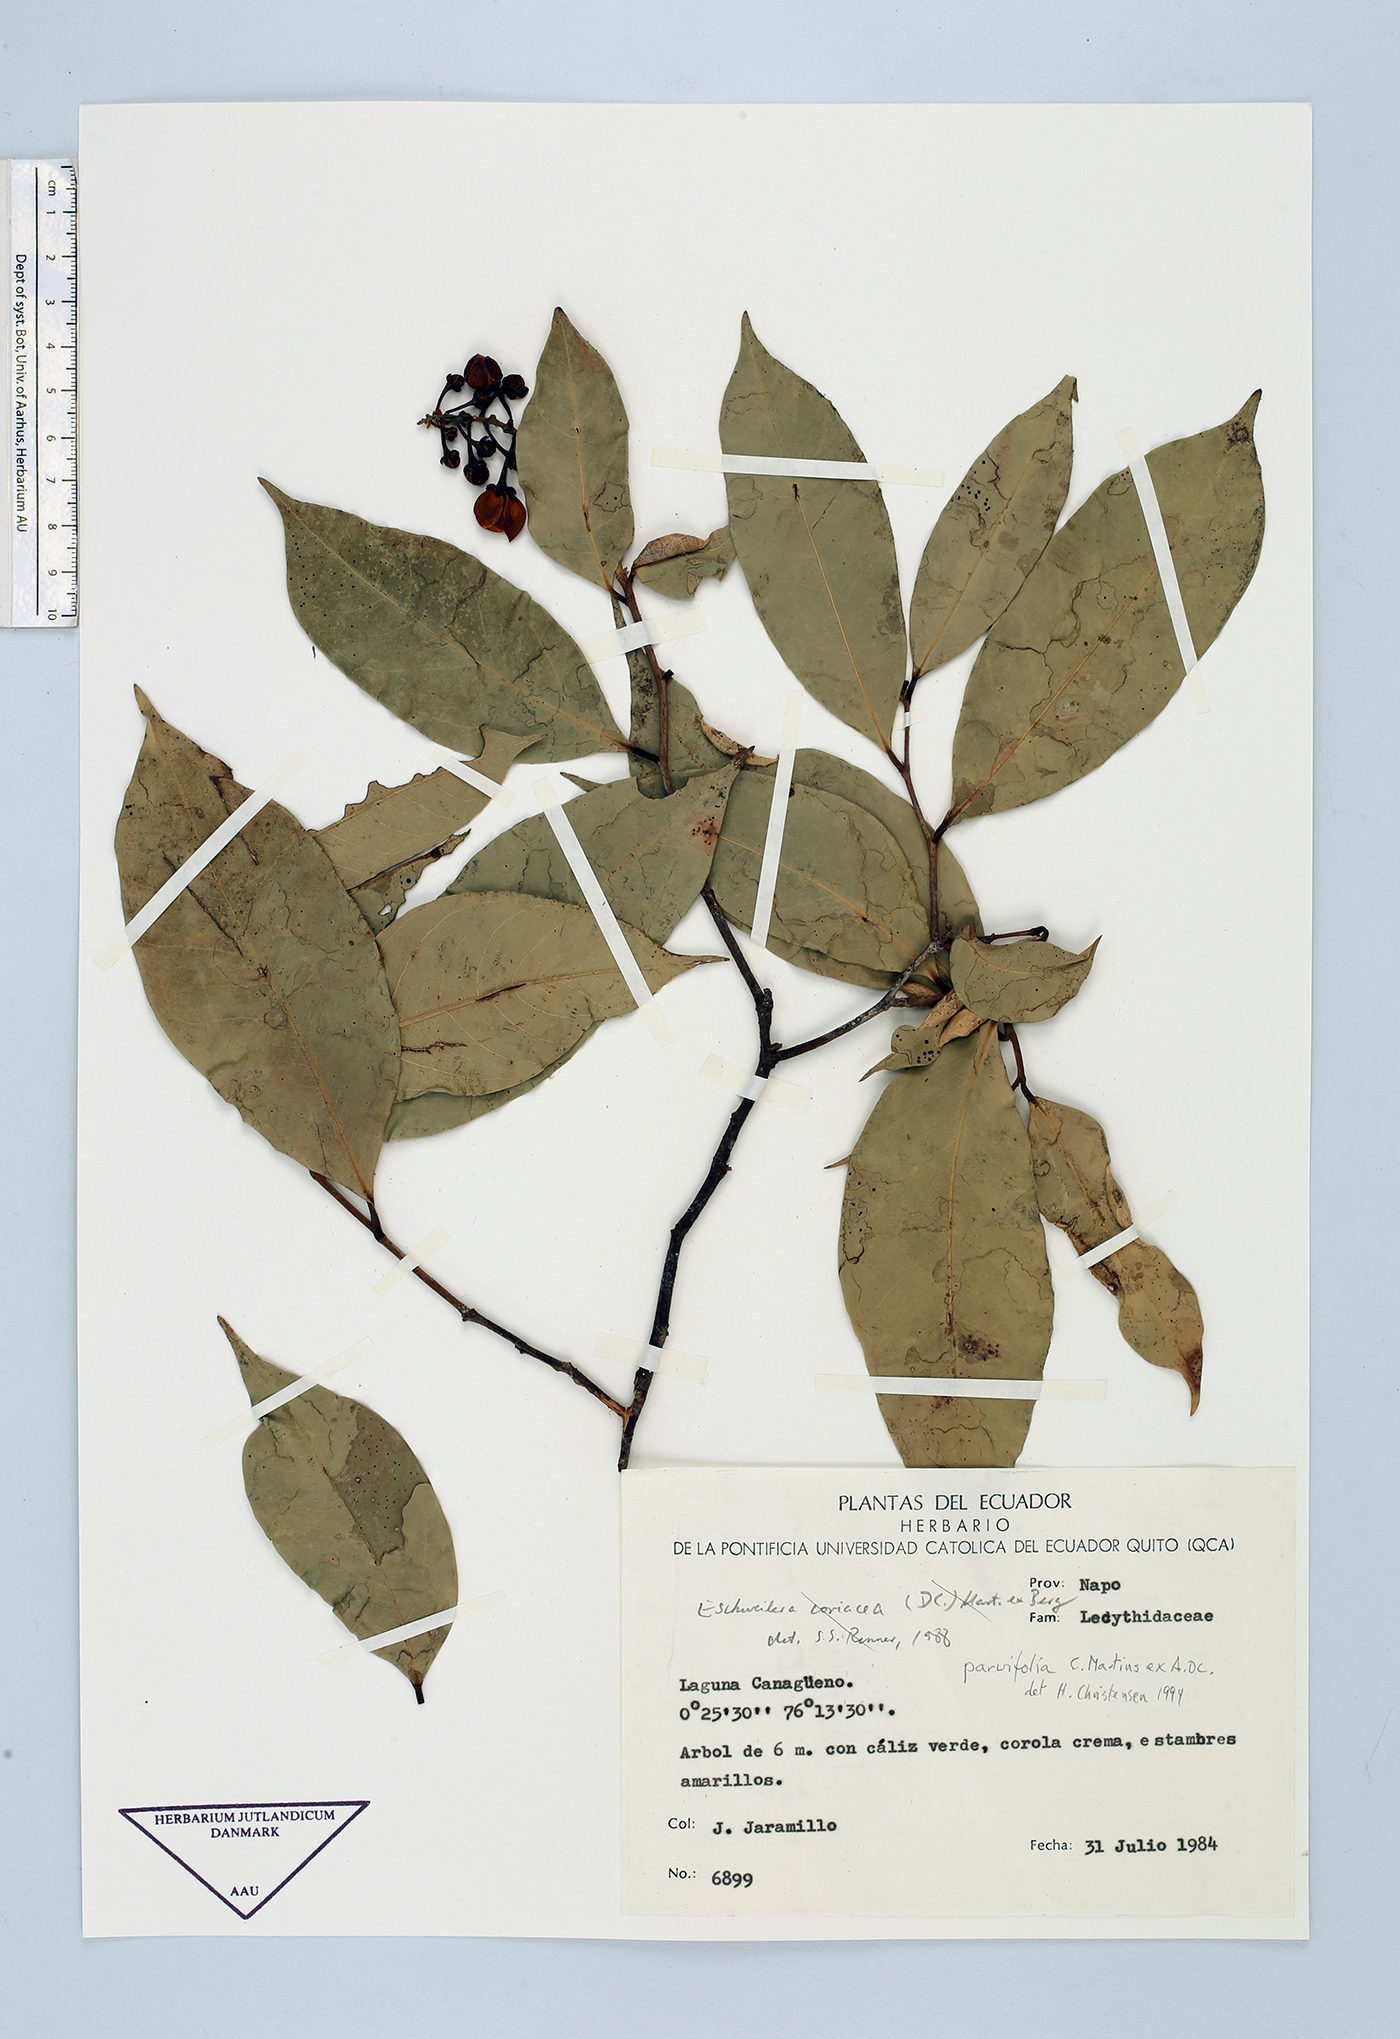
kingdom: Plantae
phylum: Tracheophyta
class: Magnoliopsida
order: Ericales
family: Lecythidaceae
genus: Eschweilera
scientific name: Eschweilera parvifolia
